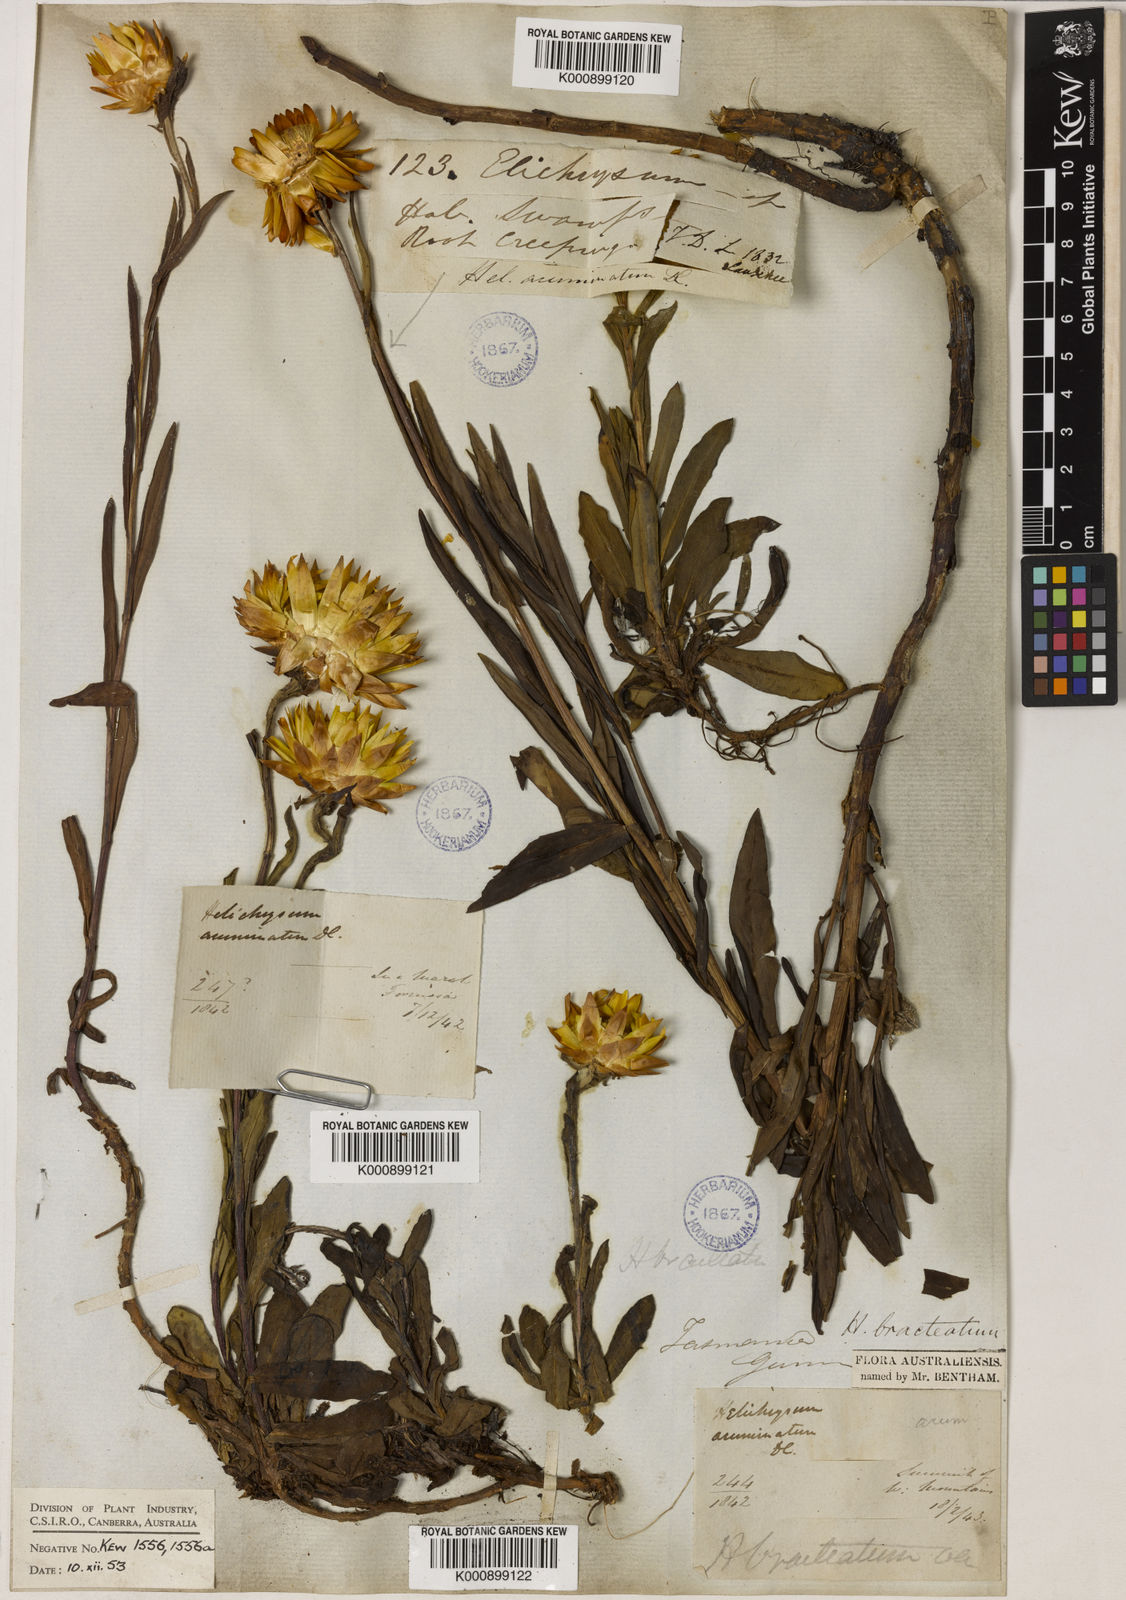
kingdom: Plantae
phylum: Tracheophyta
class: Magnoliopsida
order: Asterales
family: Asteraceae
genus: Xerochrysum
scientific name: Xerochrysum bracteatum
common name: Bracted strawflower
